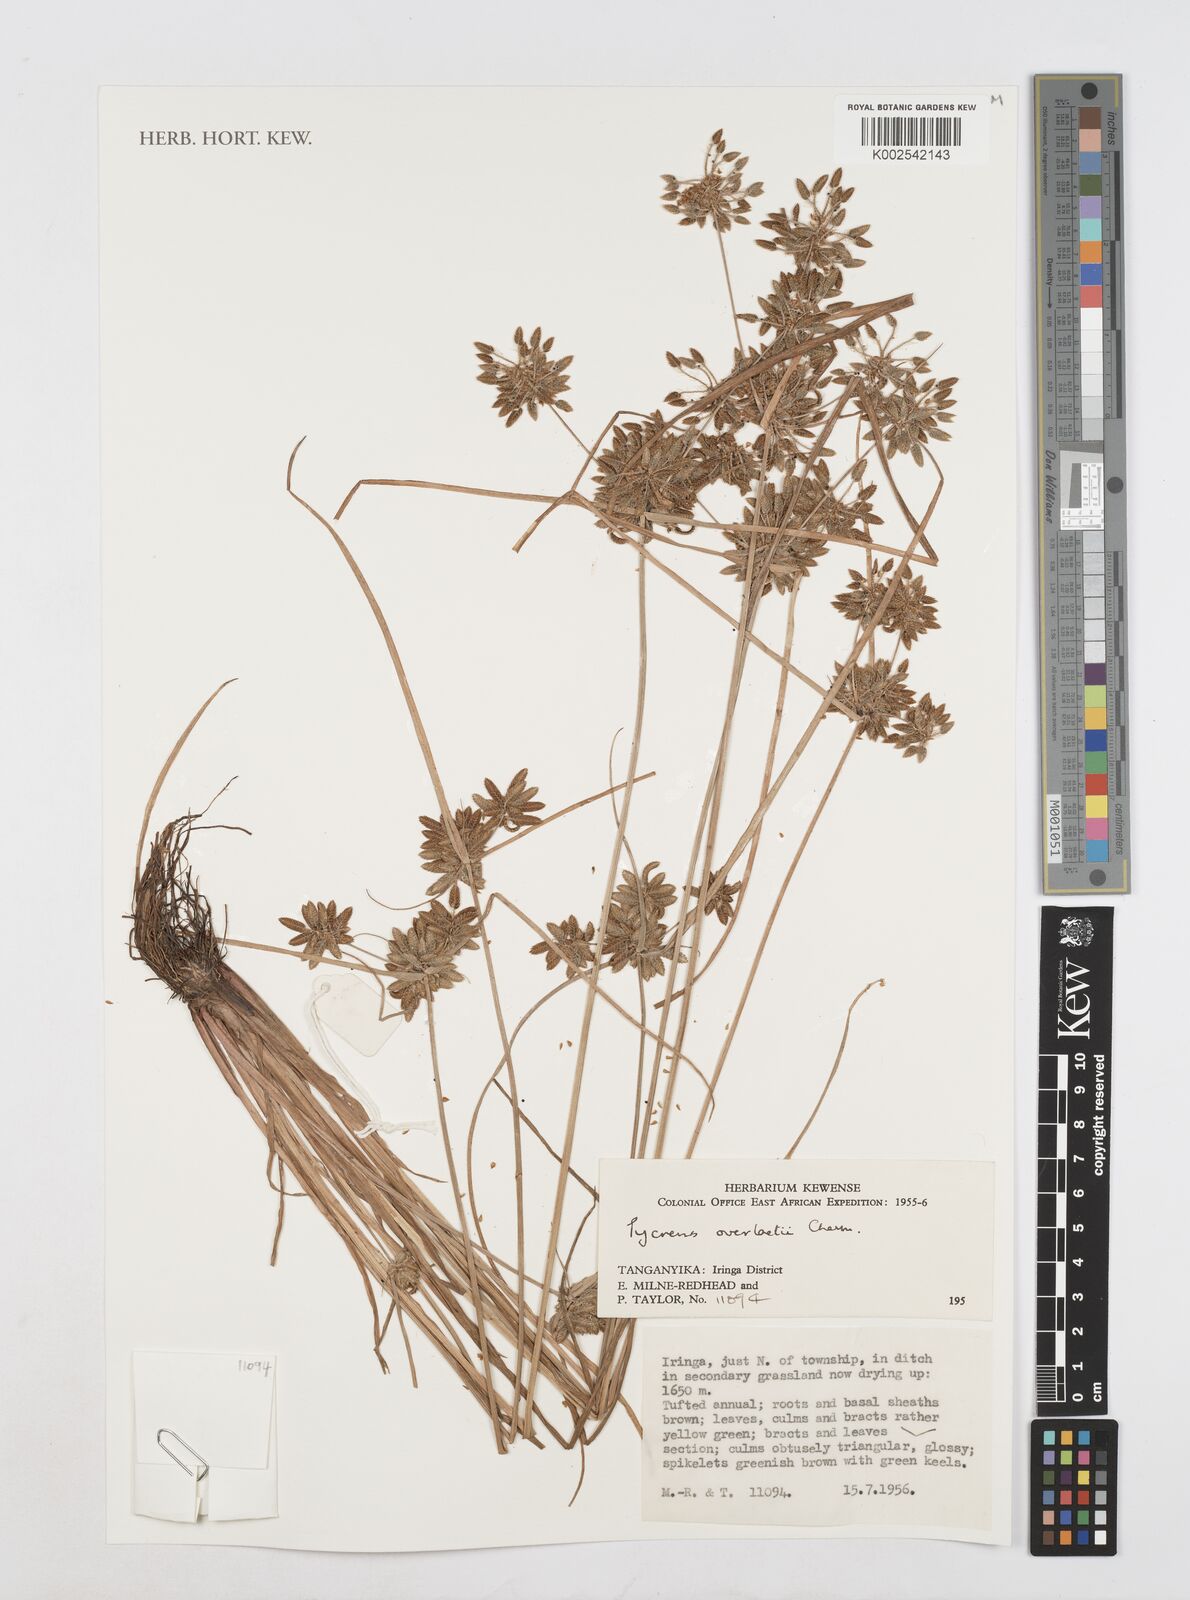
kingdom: Plantae
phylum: Tracheophyta
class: Liliopsida
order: Poales
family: Cyperaceae
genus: Cyperus
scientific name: Cyperus unioloides
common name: Uniola flatsedge
